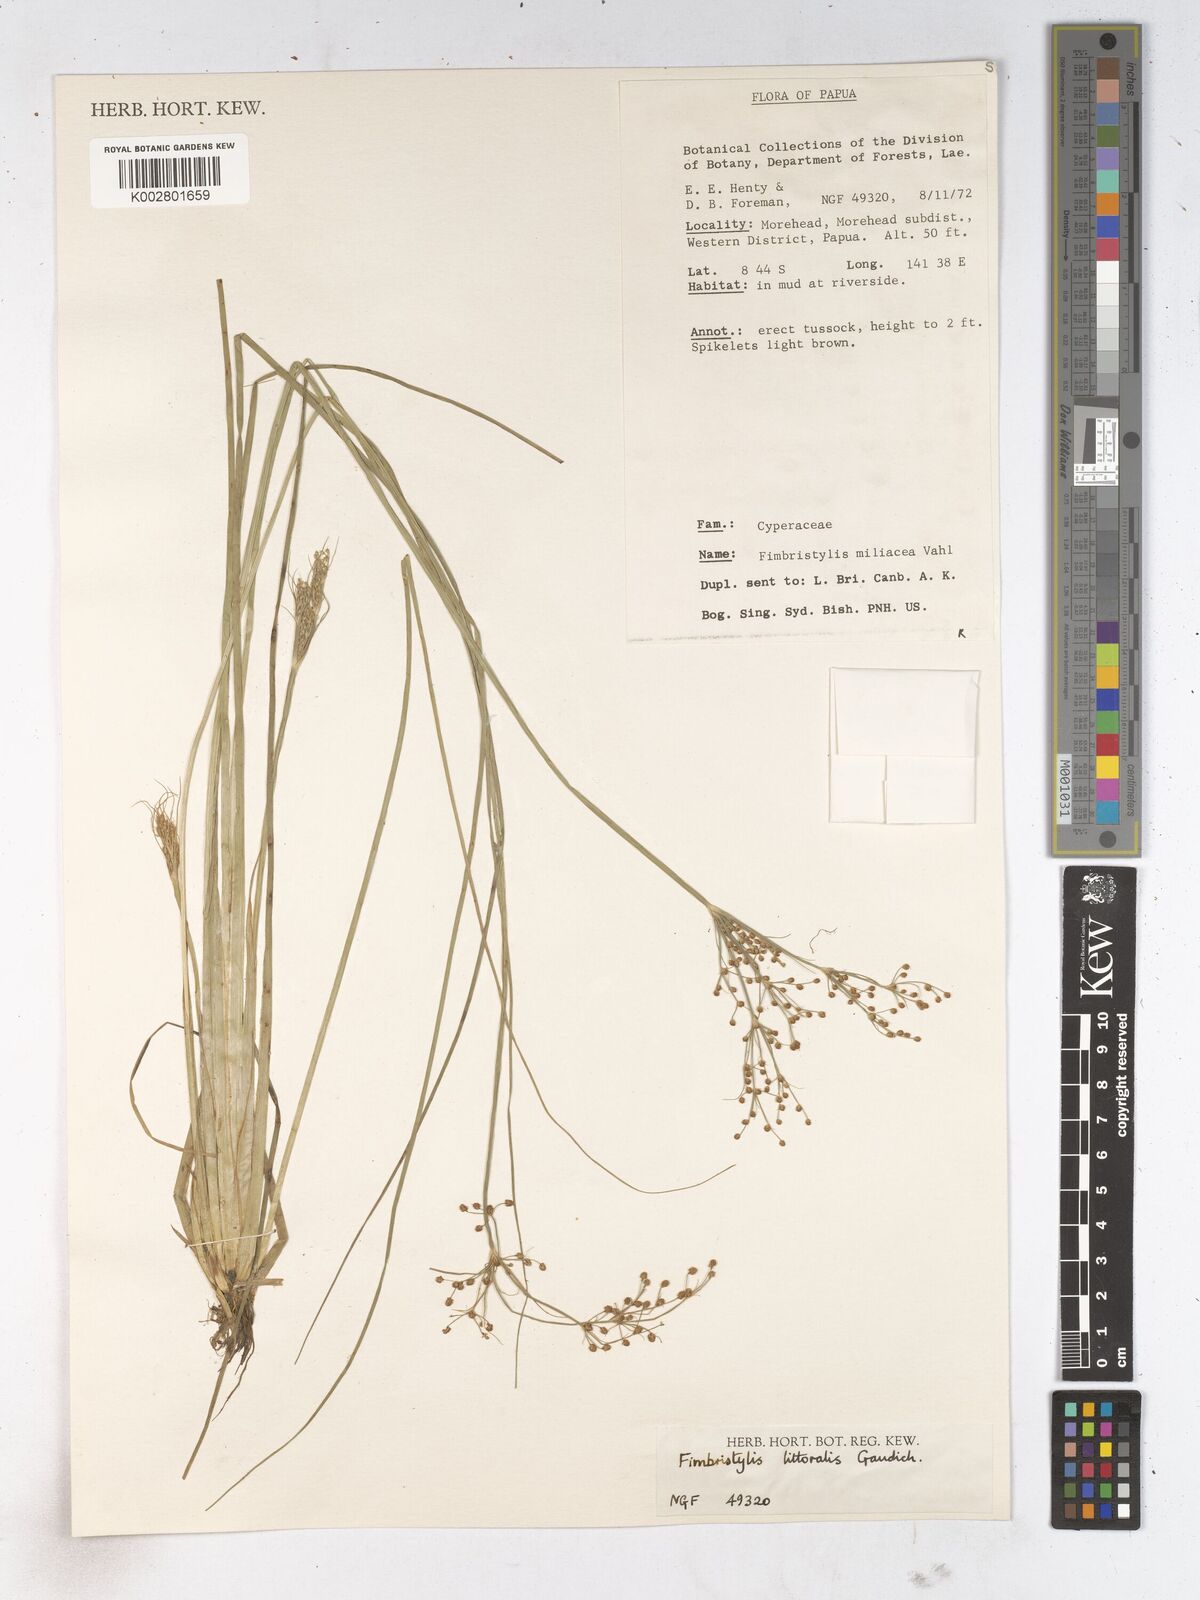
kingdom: Plantae
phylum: Tracheophyta
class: Liliopsida
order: Poales
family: Cyperaceae
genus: Fimbristylis
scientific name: Fimbristylis littoralis
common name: Fimbry
